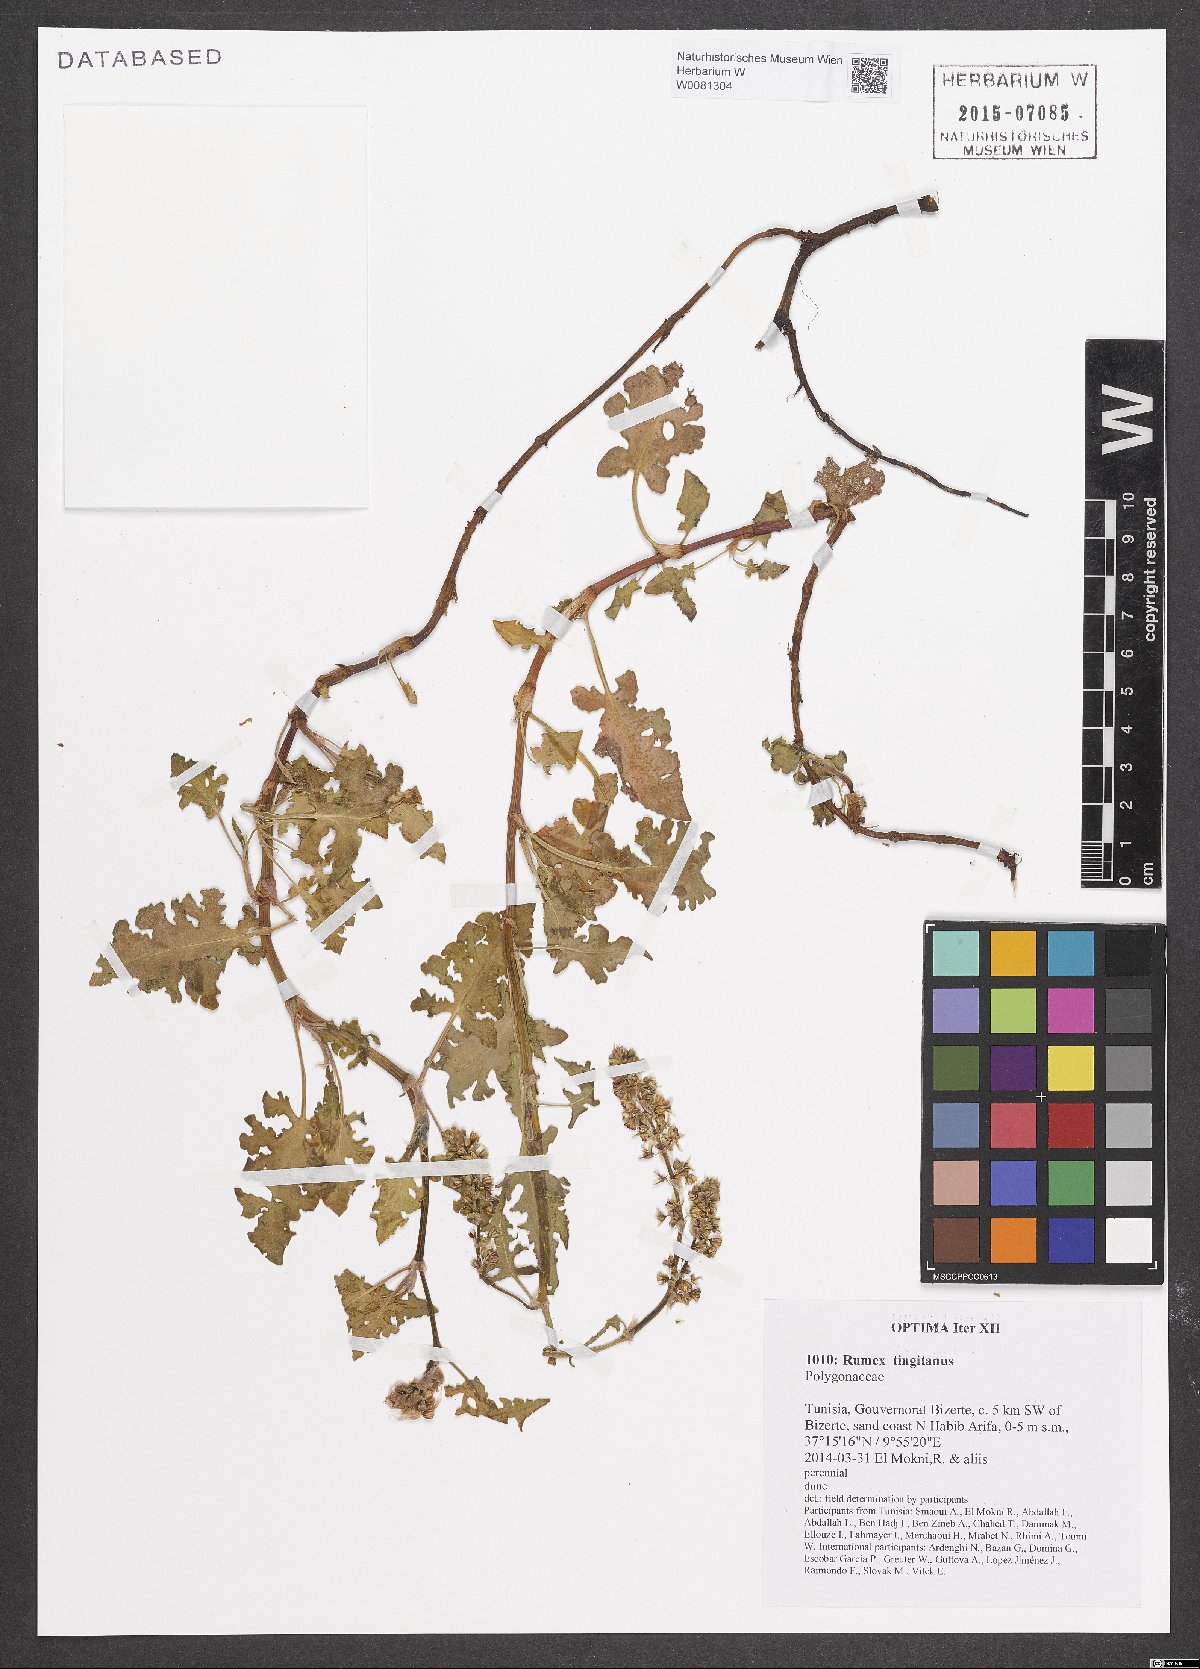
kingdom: Plantae
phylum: Tracheophyta
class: Magnoliopsida
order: Caryophyllales
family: Polygonaceae
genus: Rumex
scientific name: Rumex roseus
